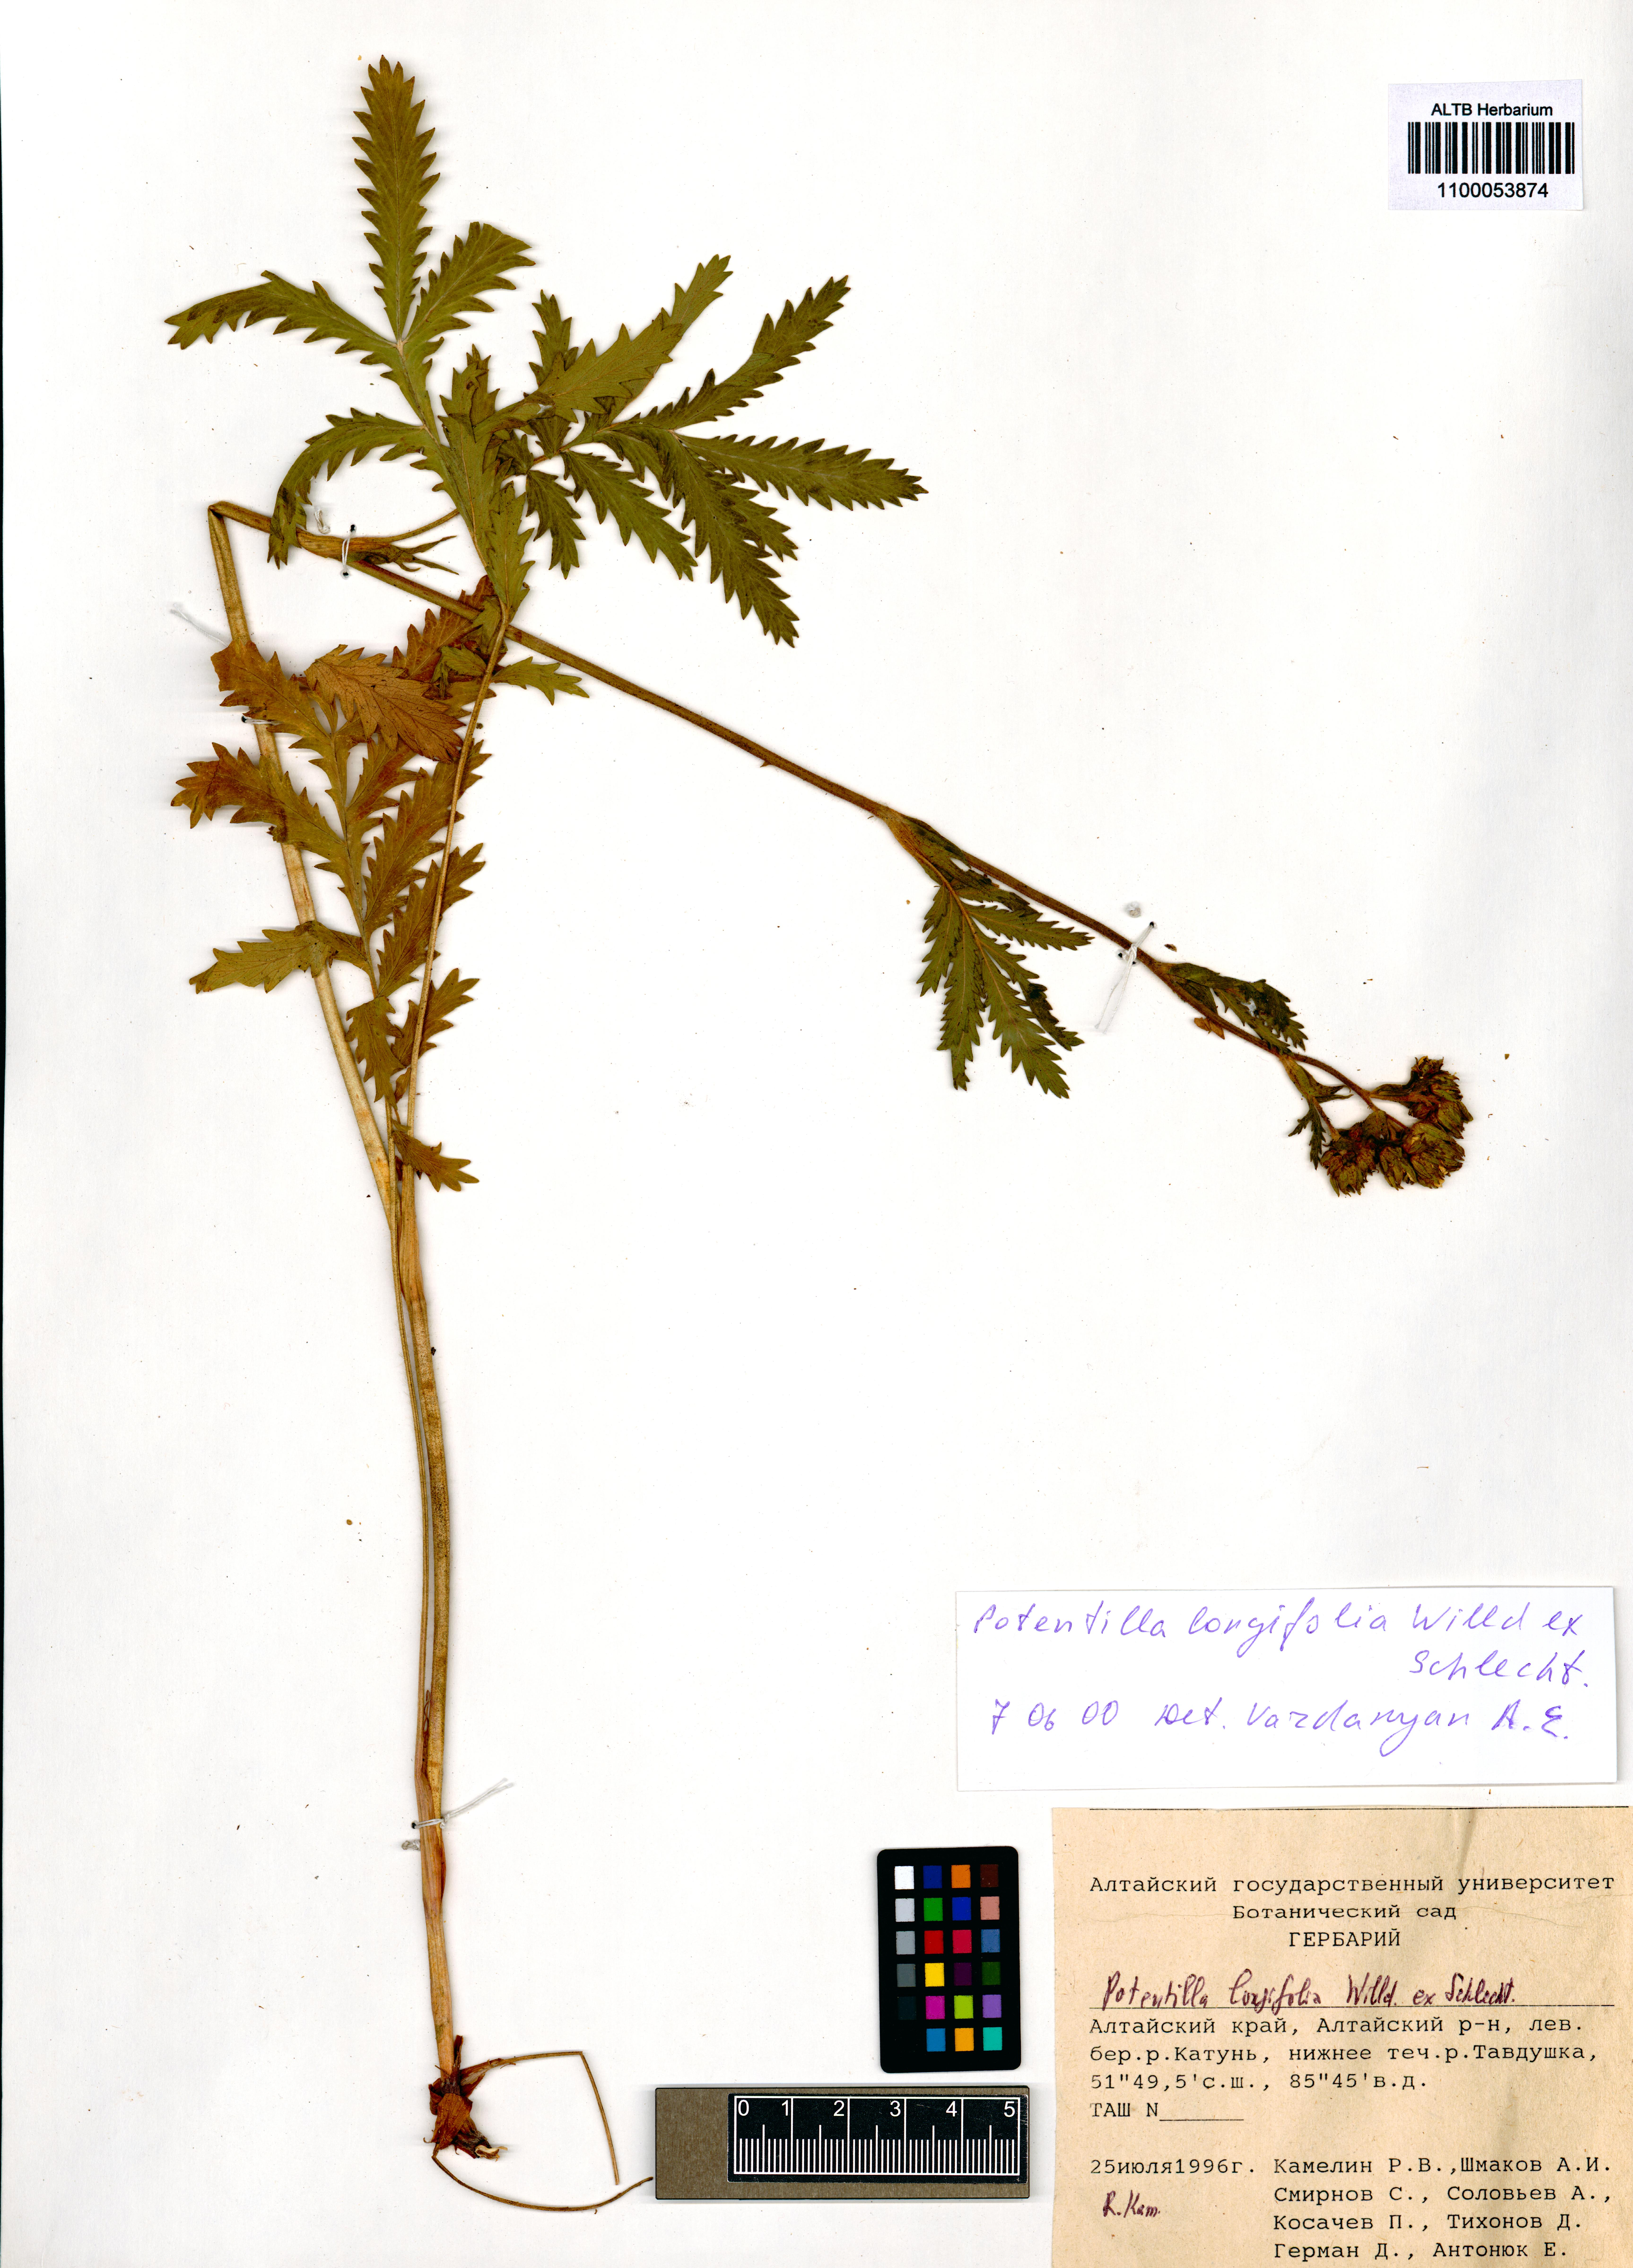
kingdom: Plantae
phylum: Tracheophyta
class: Magnoliopsida
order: Rosales
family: Rosaceae
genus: Potentilla
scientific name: Potentilla longifolia
